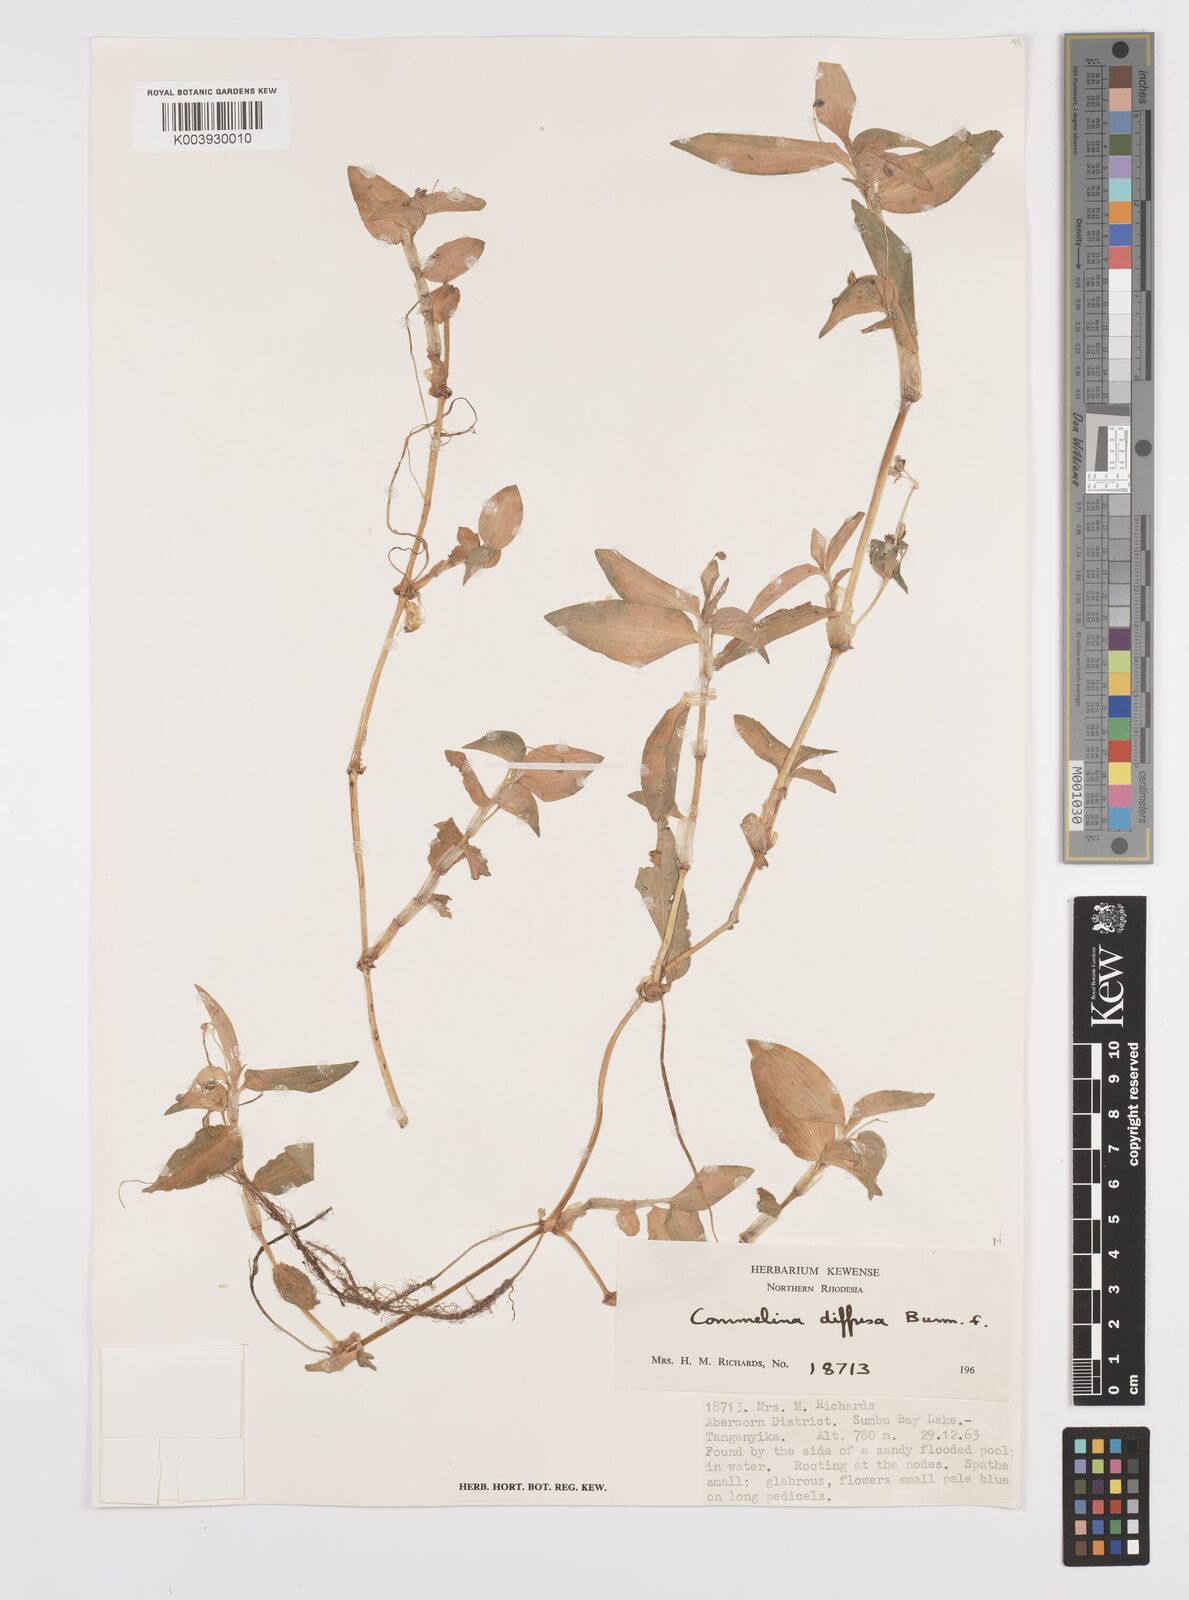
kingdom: Plantae
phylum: Tracheophyta
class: Liliopsida
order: Commelinales
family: Commelinaceae
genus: Commelina
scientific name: Commelina diffusa
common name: Climbing dayflower
